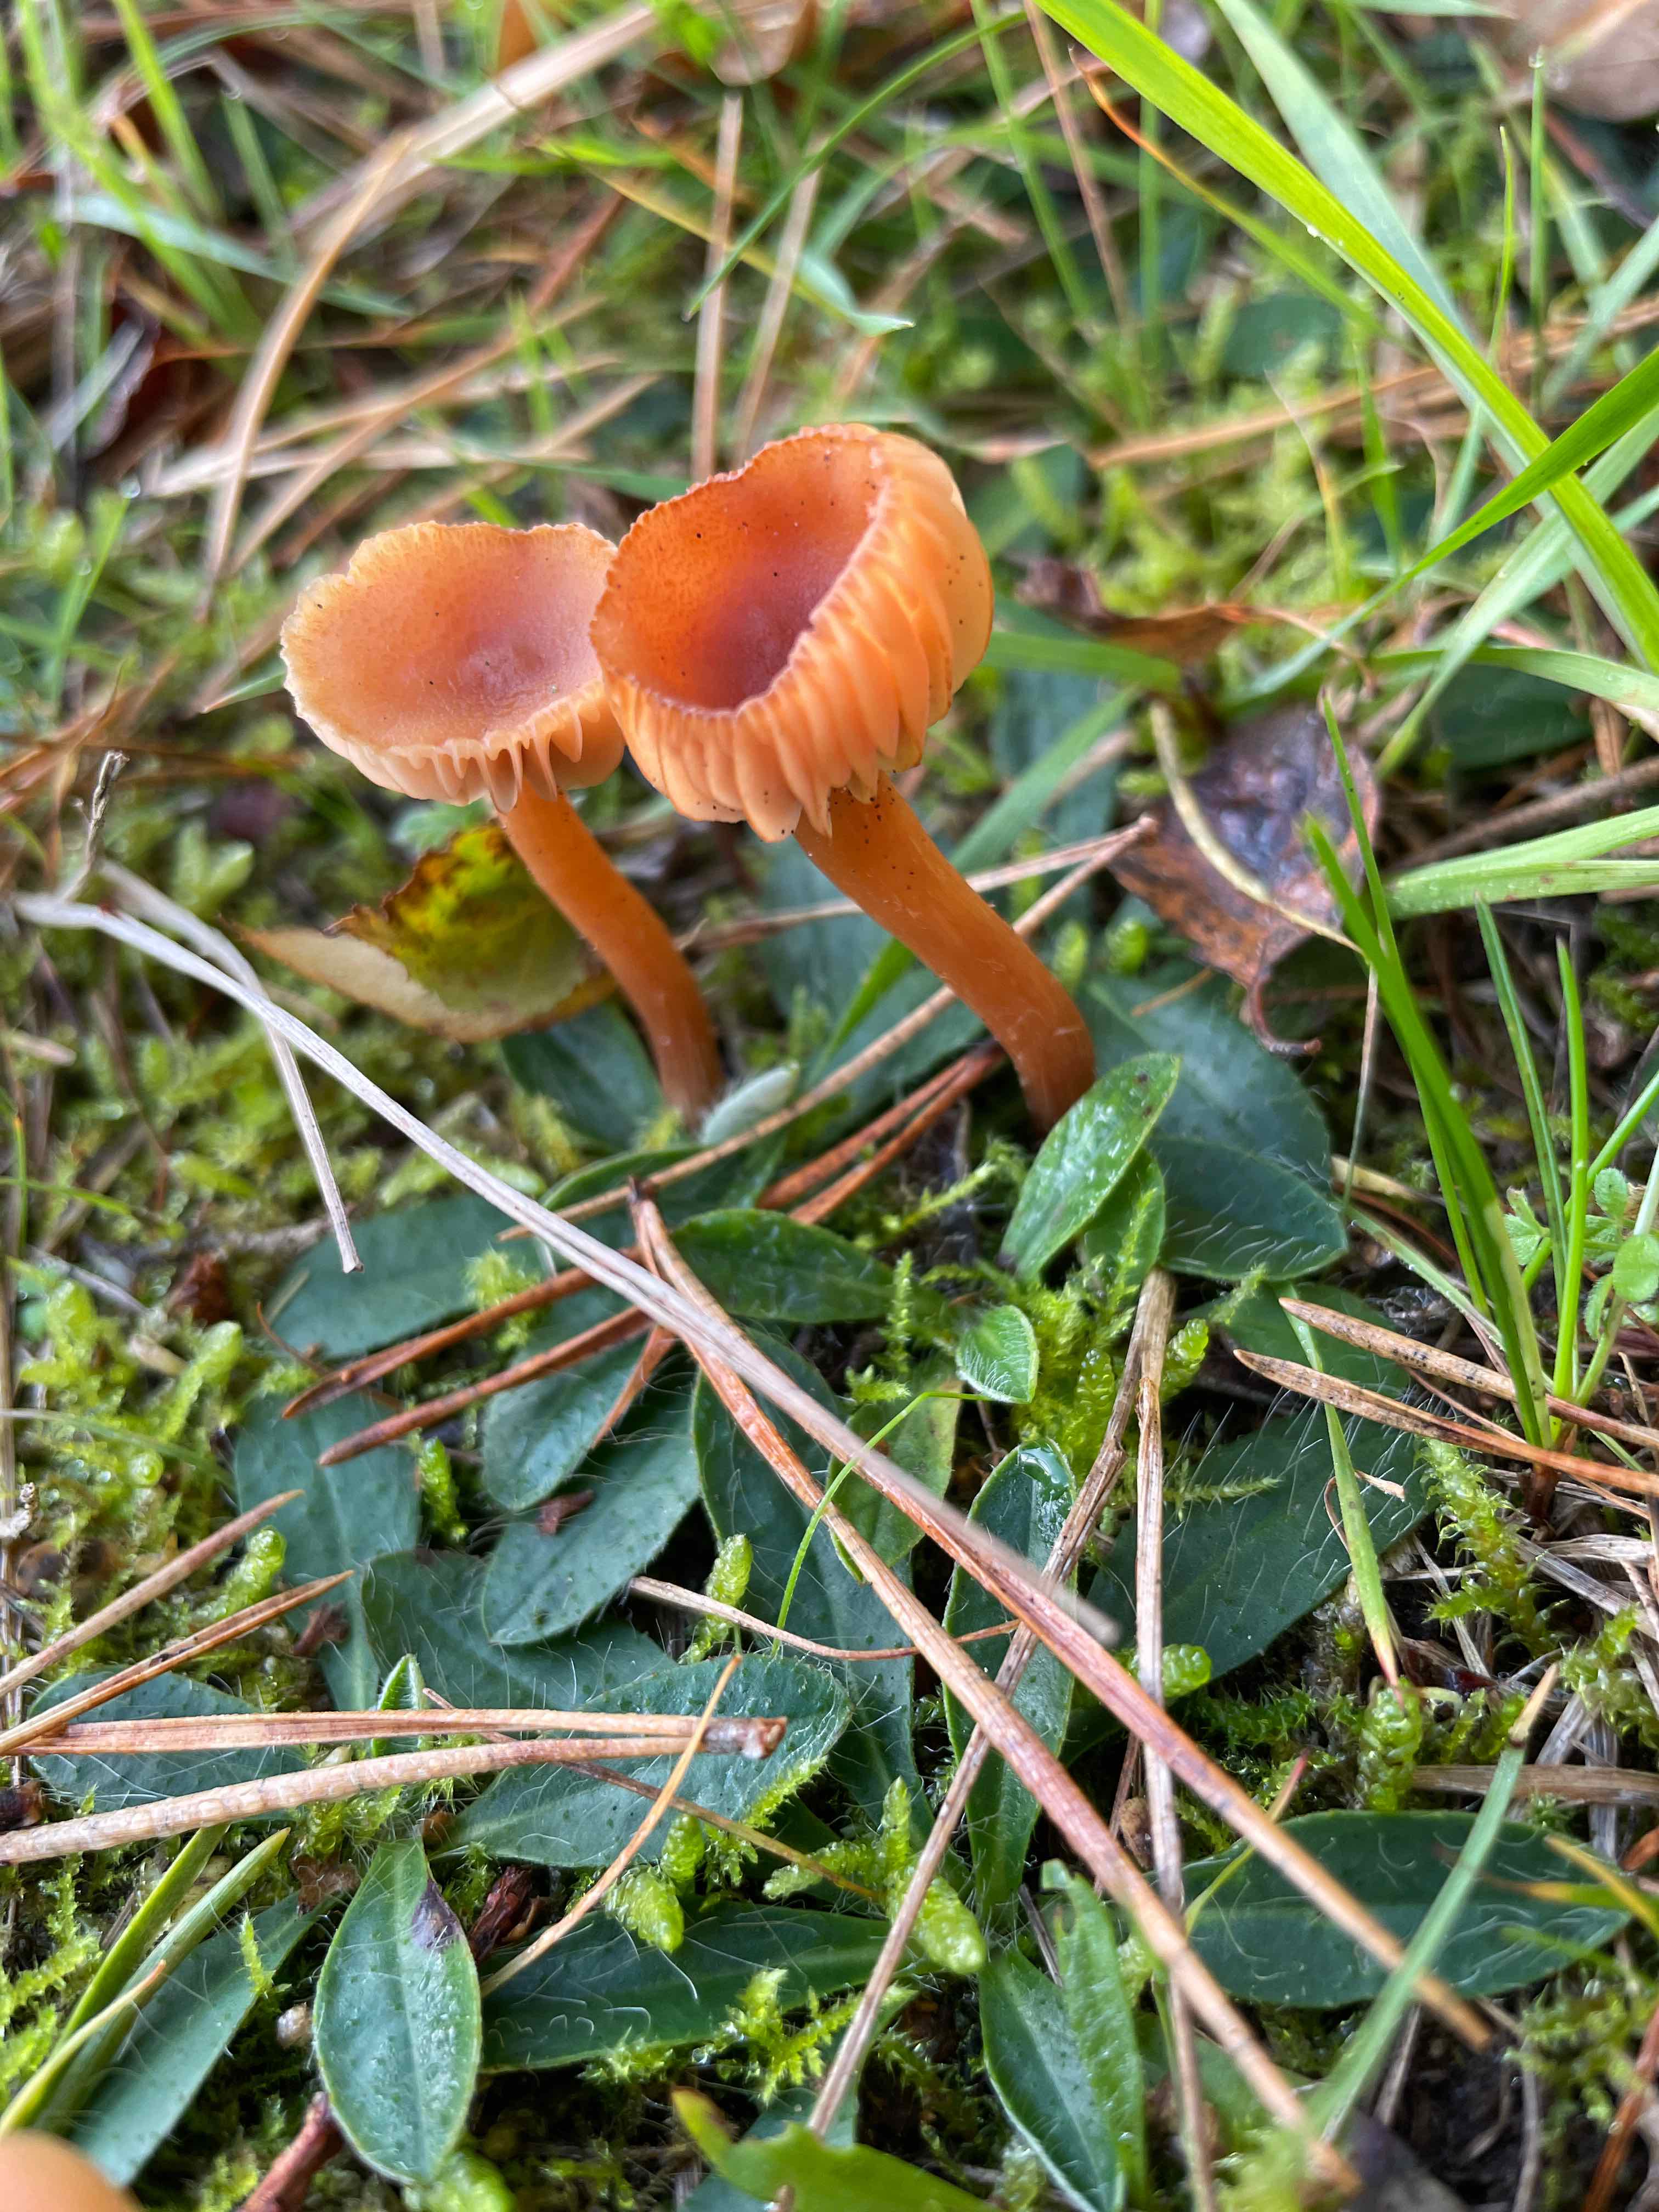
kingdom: Fungi
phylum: Basidiomycota
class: Agaricomycetes
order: Agaricales
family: Hydnangiaceae
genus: Laccaria
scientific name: Laccaria laccata
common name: rød ametysthat
